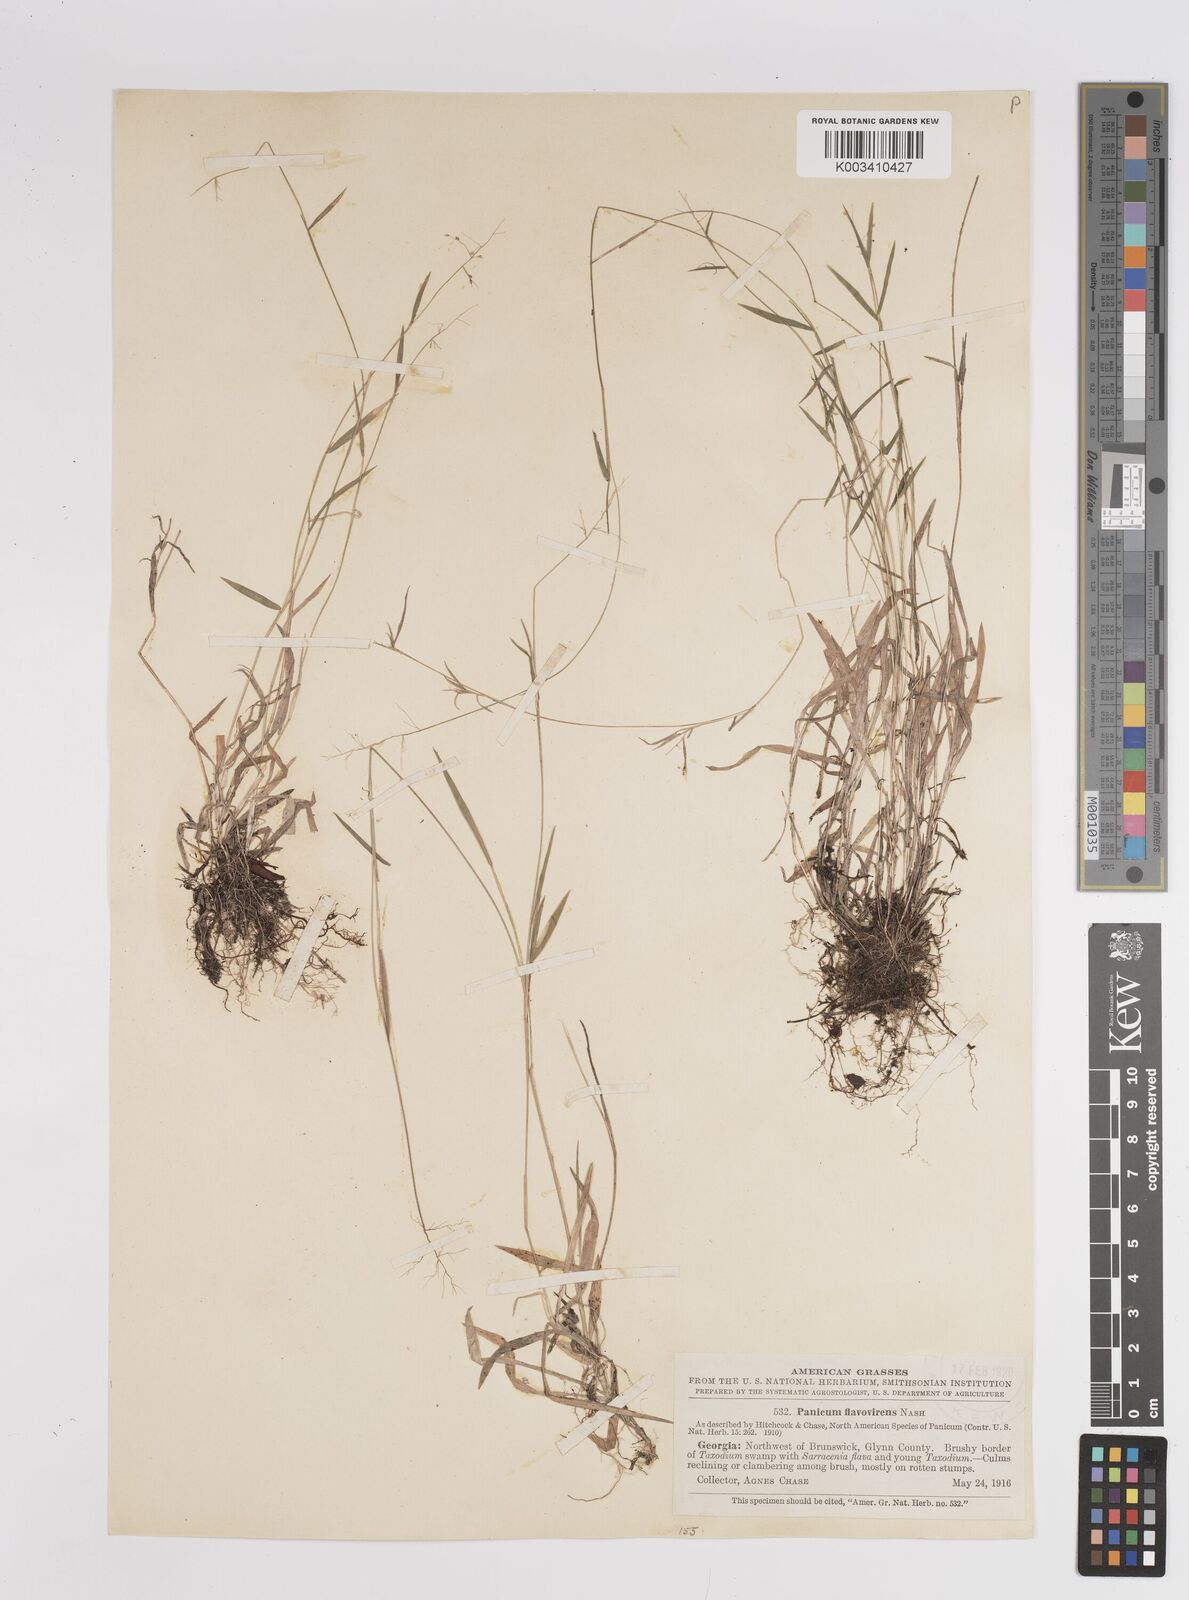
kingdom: Plantae
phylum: Tracheophyta
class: Liliopsida
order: Poales
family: Poaceae
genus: Dichanthelium
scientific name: Dichanthelium trifolium
